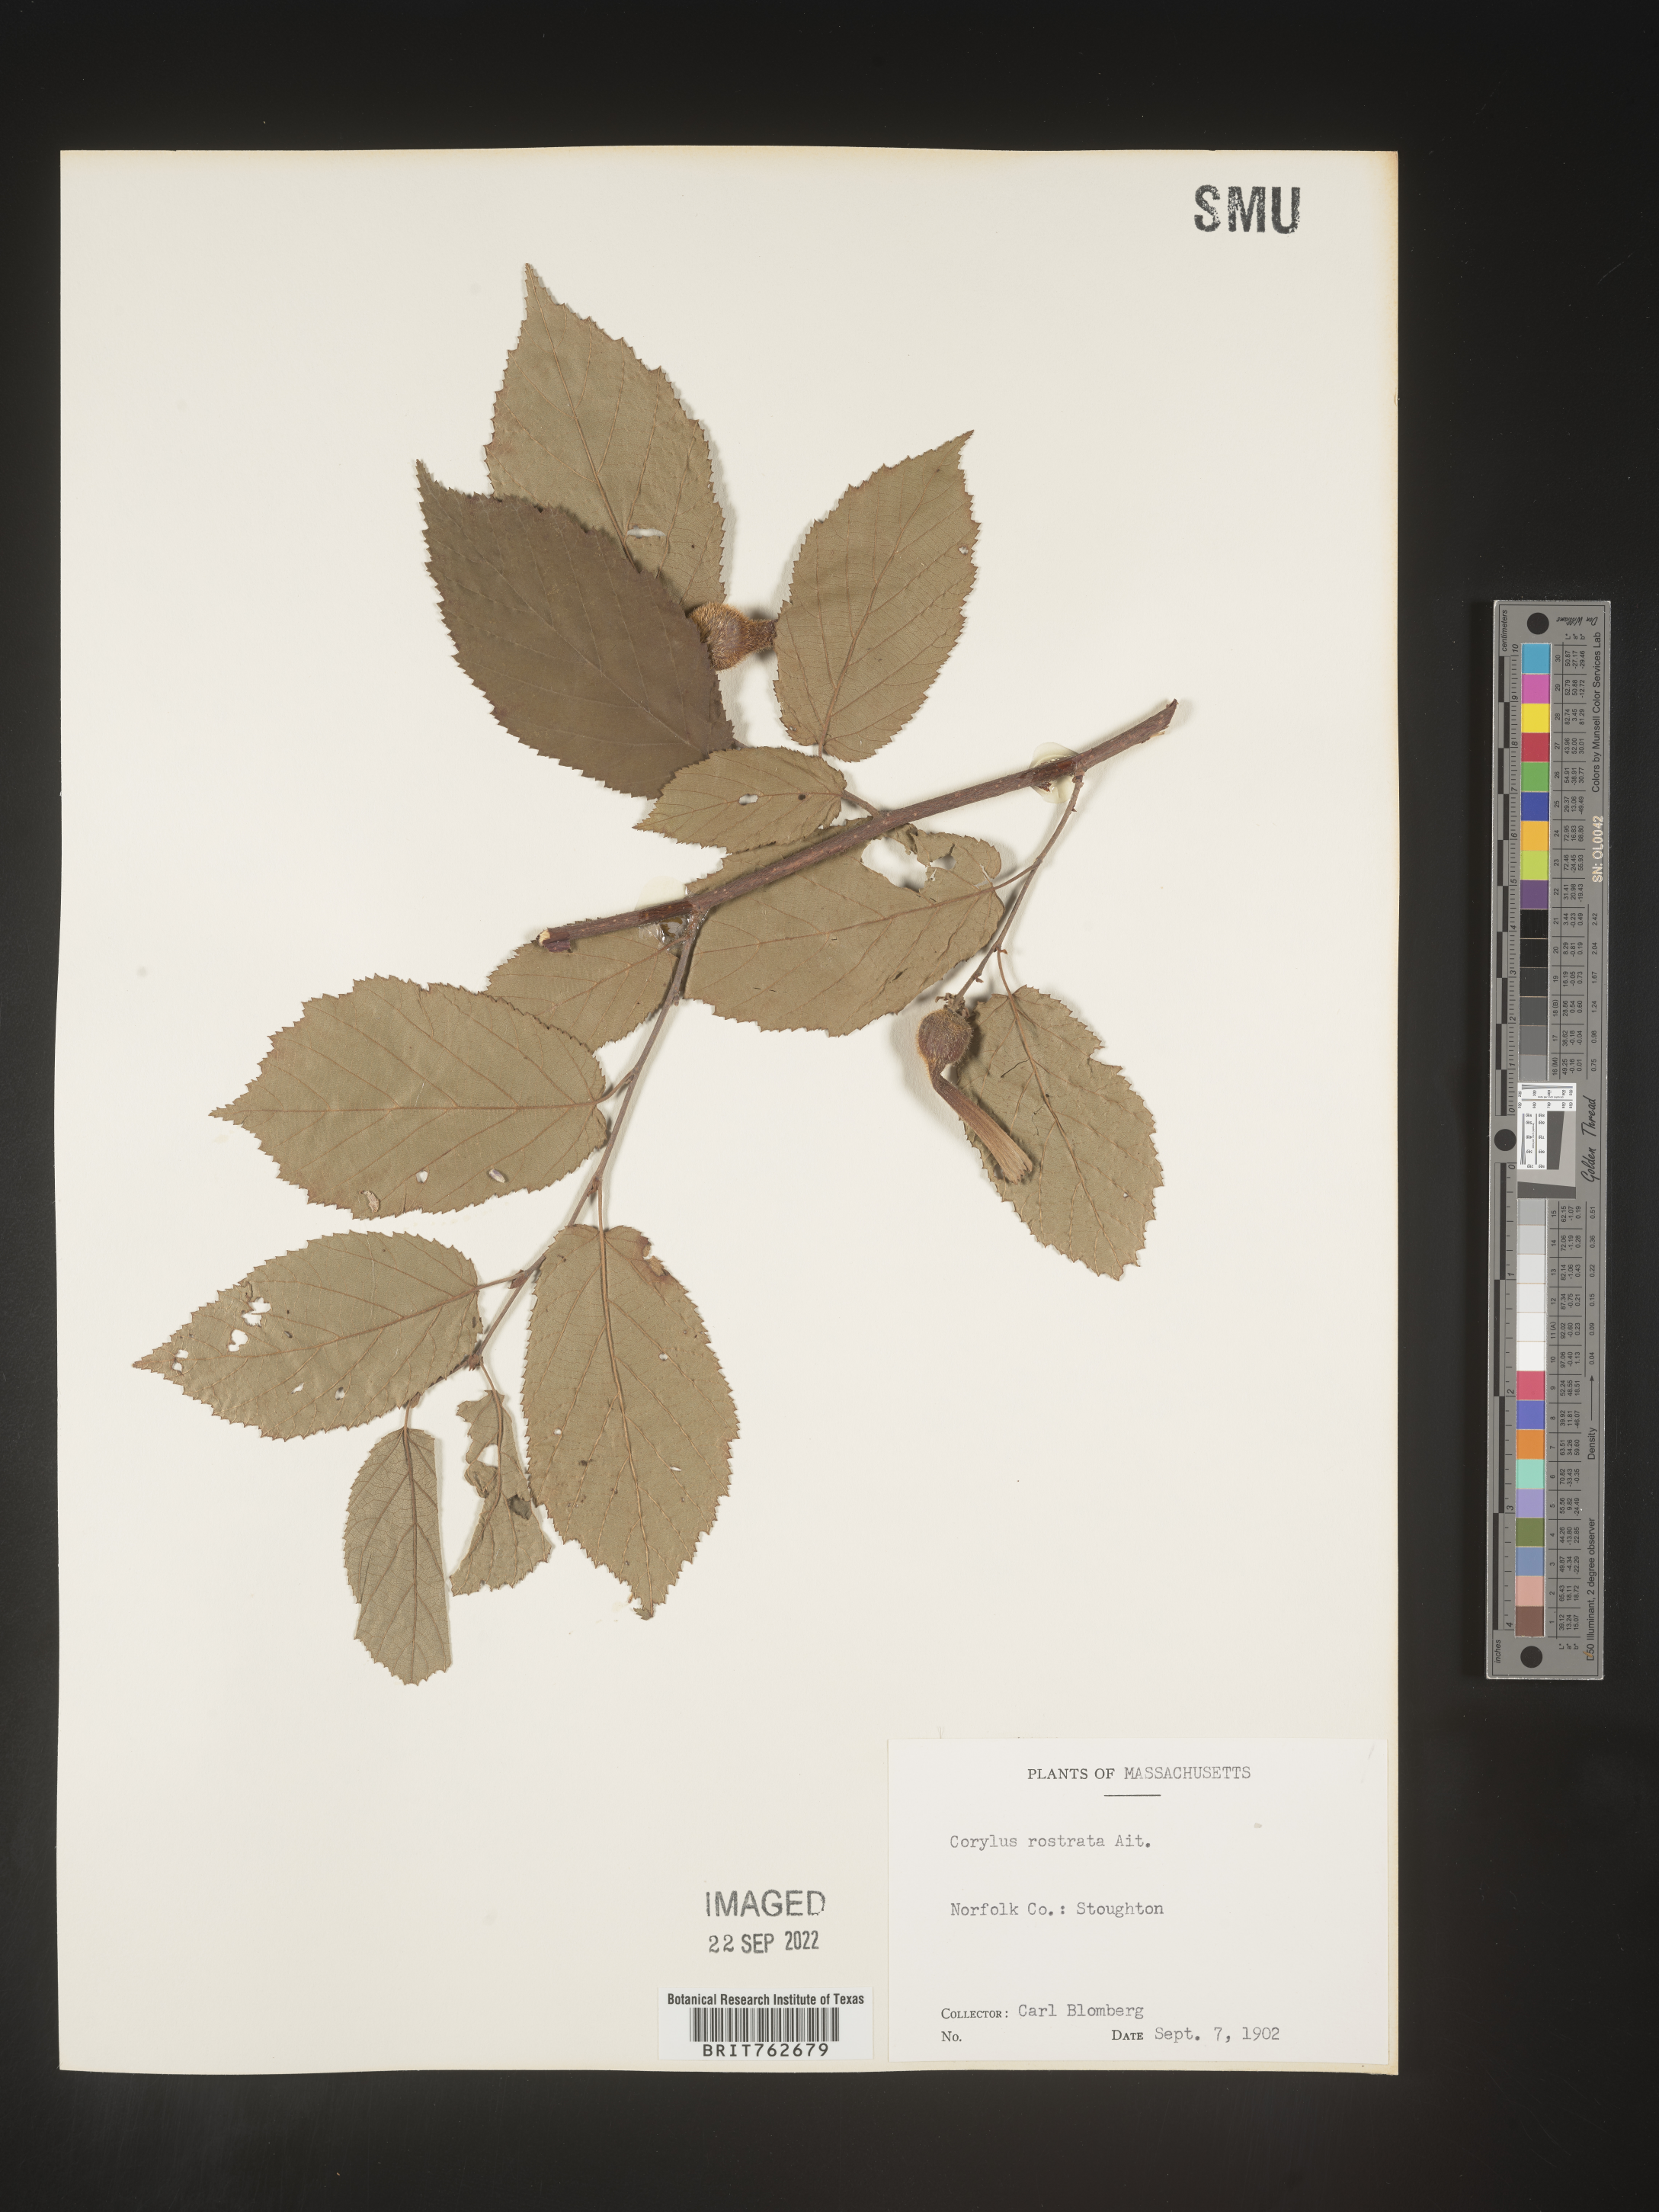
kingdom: Plantae
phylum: Tracheophyta
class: Magnoliopsida
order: Fagales
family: Betulaceae
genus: Corylus
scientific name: Corylus cornuta
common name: Beaked hazel
